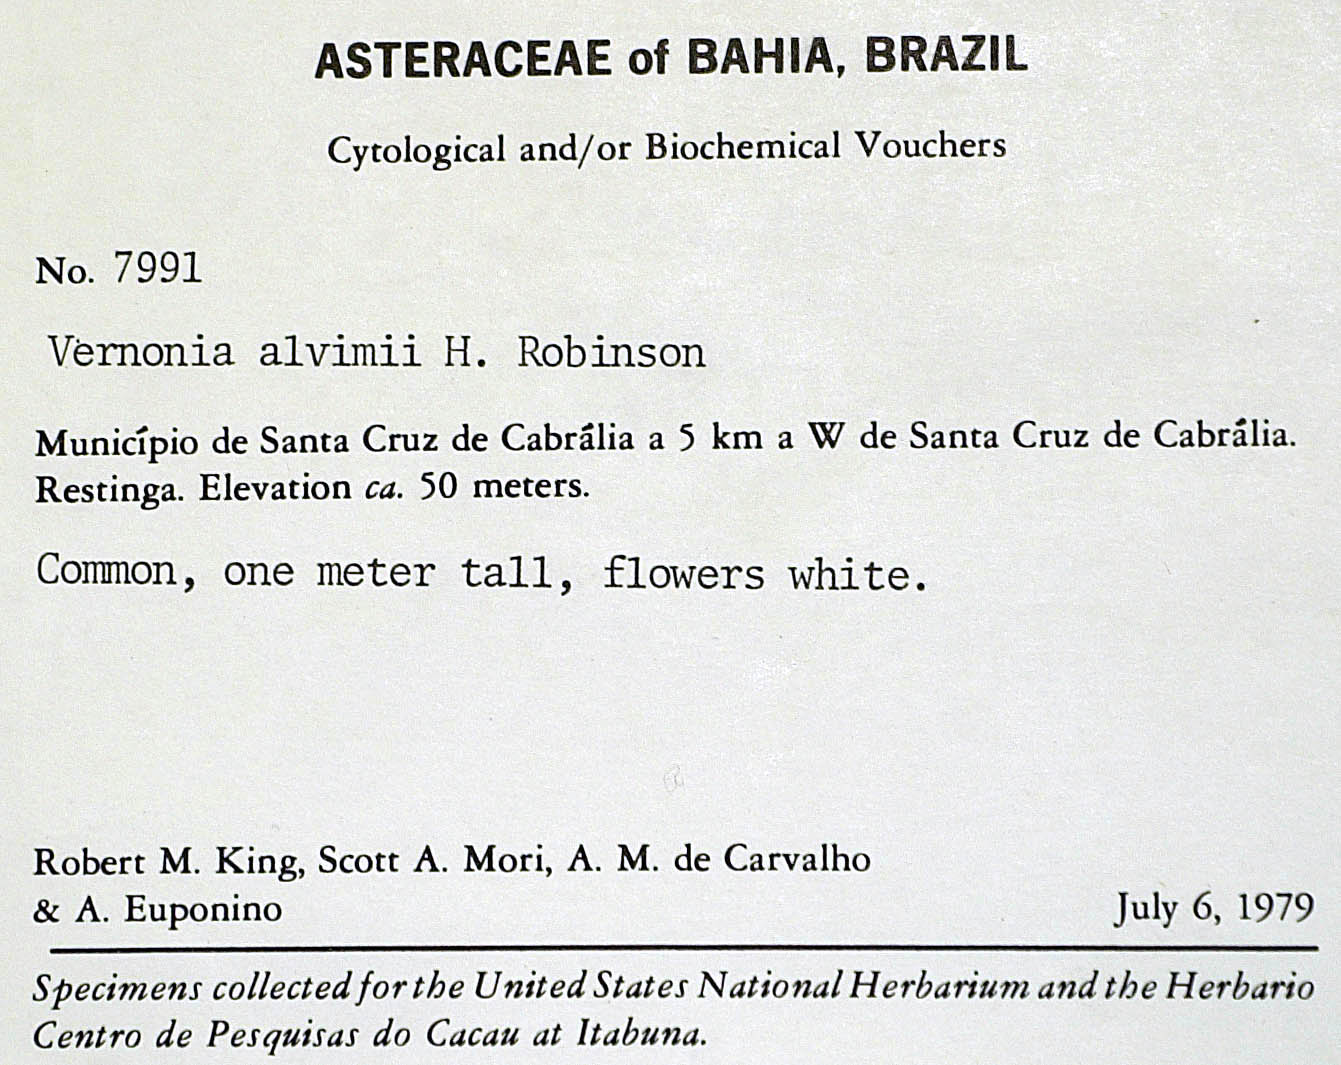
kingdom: Plantae
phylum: Tracheophyta
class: Magnoliopsida
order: Asterales
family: Asteraceae
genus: Lepidaploa
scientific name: Lepidaploa alvimii
